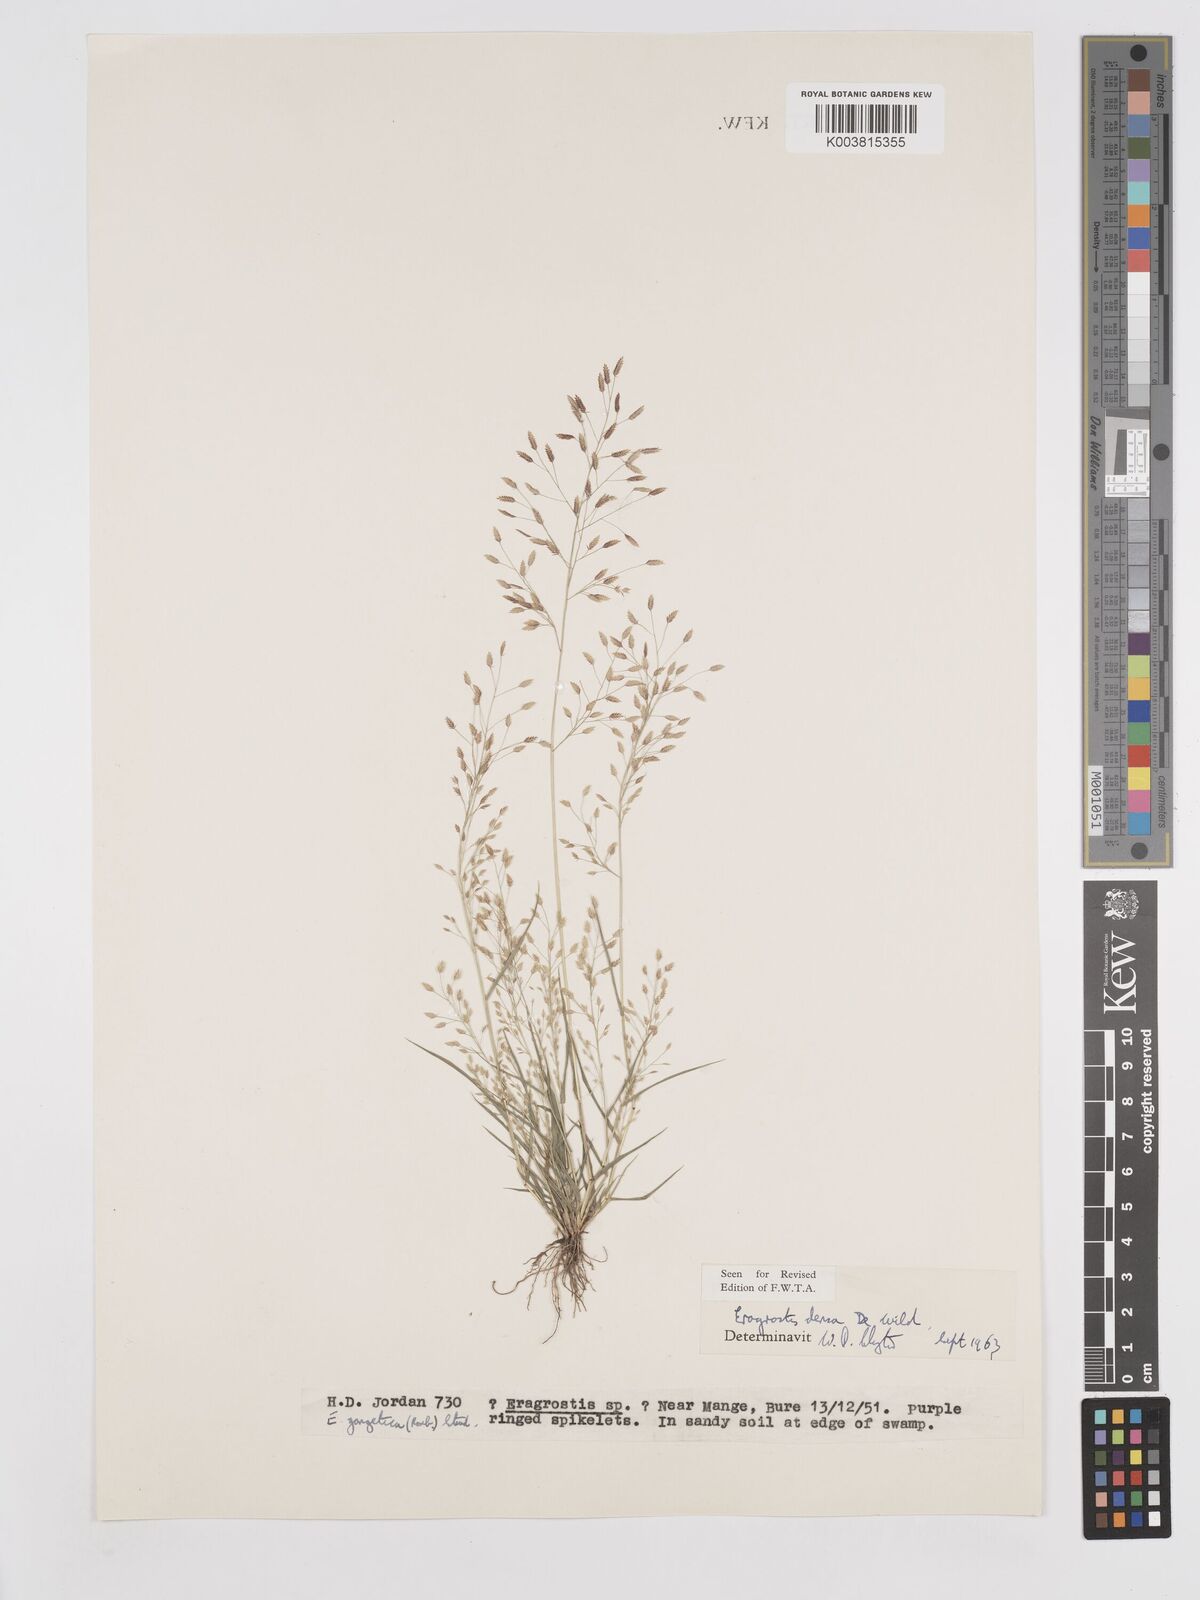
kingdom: Plantae
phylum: Tracheophyta
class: Liliopsida
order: Poales
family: Poaceae
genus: Eragrostis
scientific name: Eragrostis welwitschii
